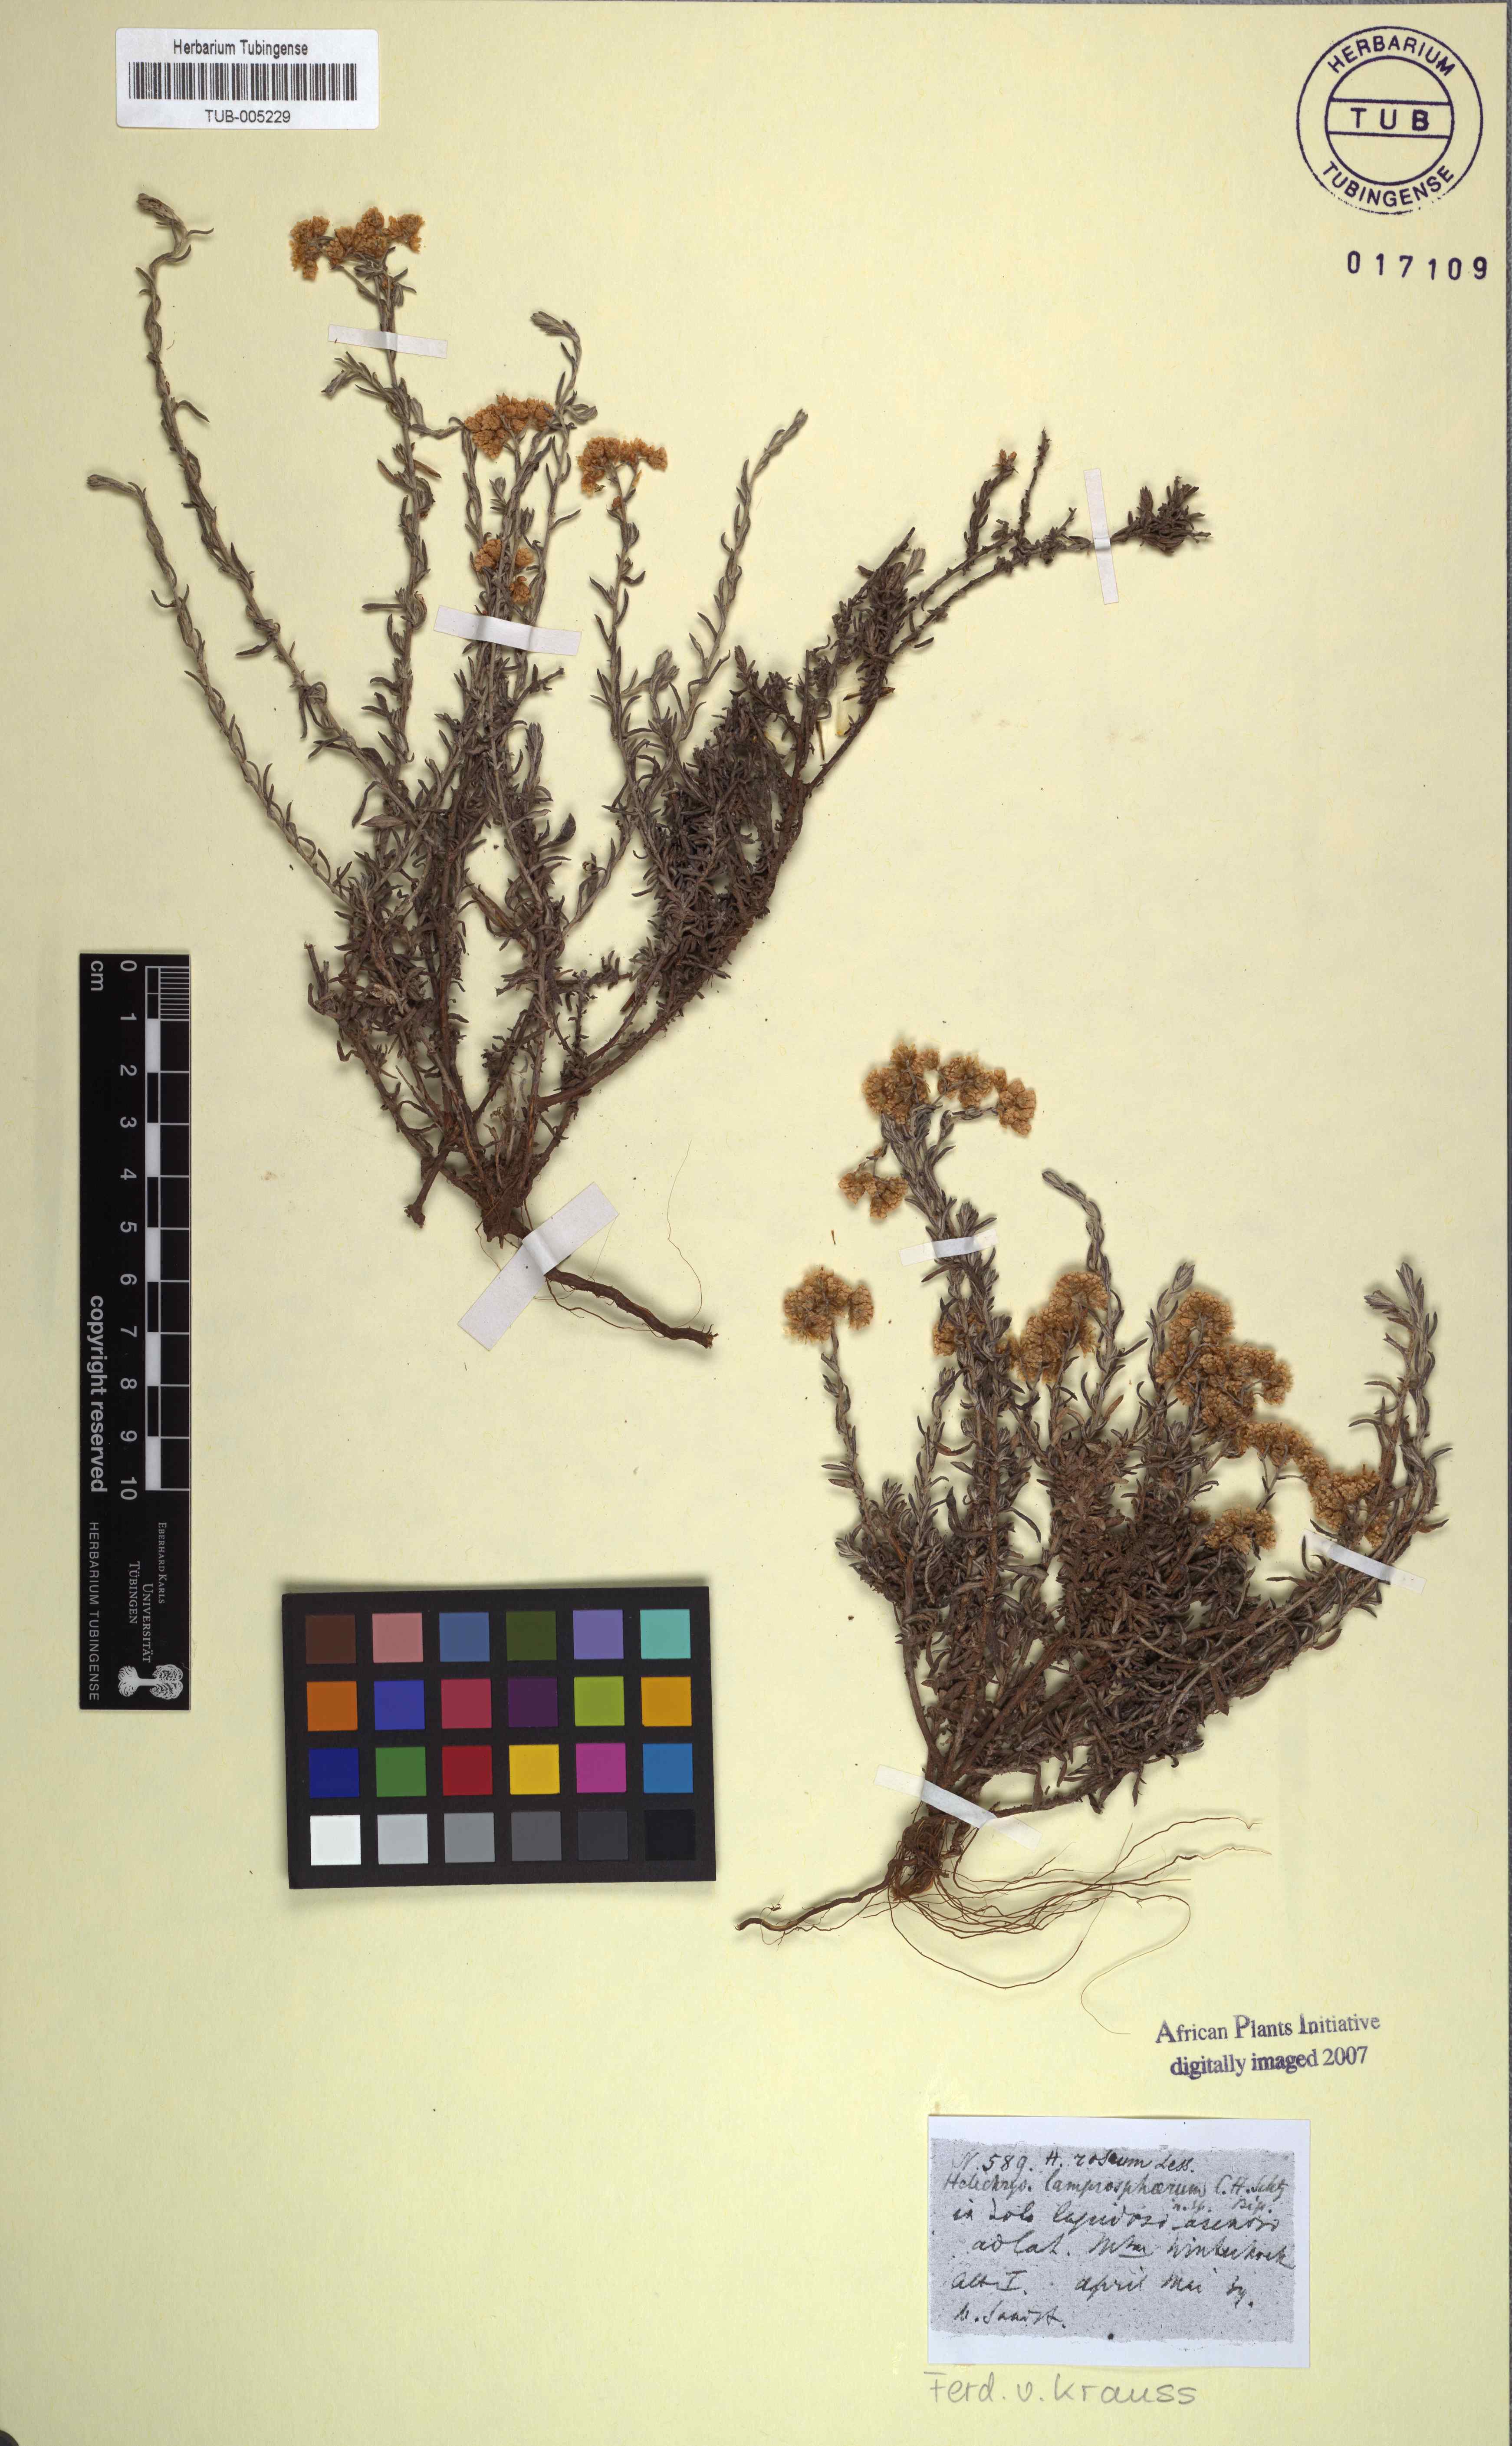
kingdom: Plantae
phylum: Tracheophyta
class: Magnoliopsida
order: Asterales
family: Asteraceae
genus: Helichrysum
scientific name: Helichrysum rosum
